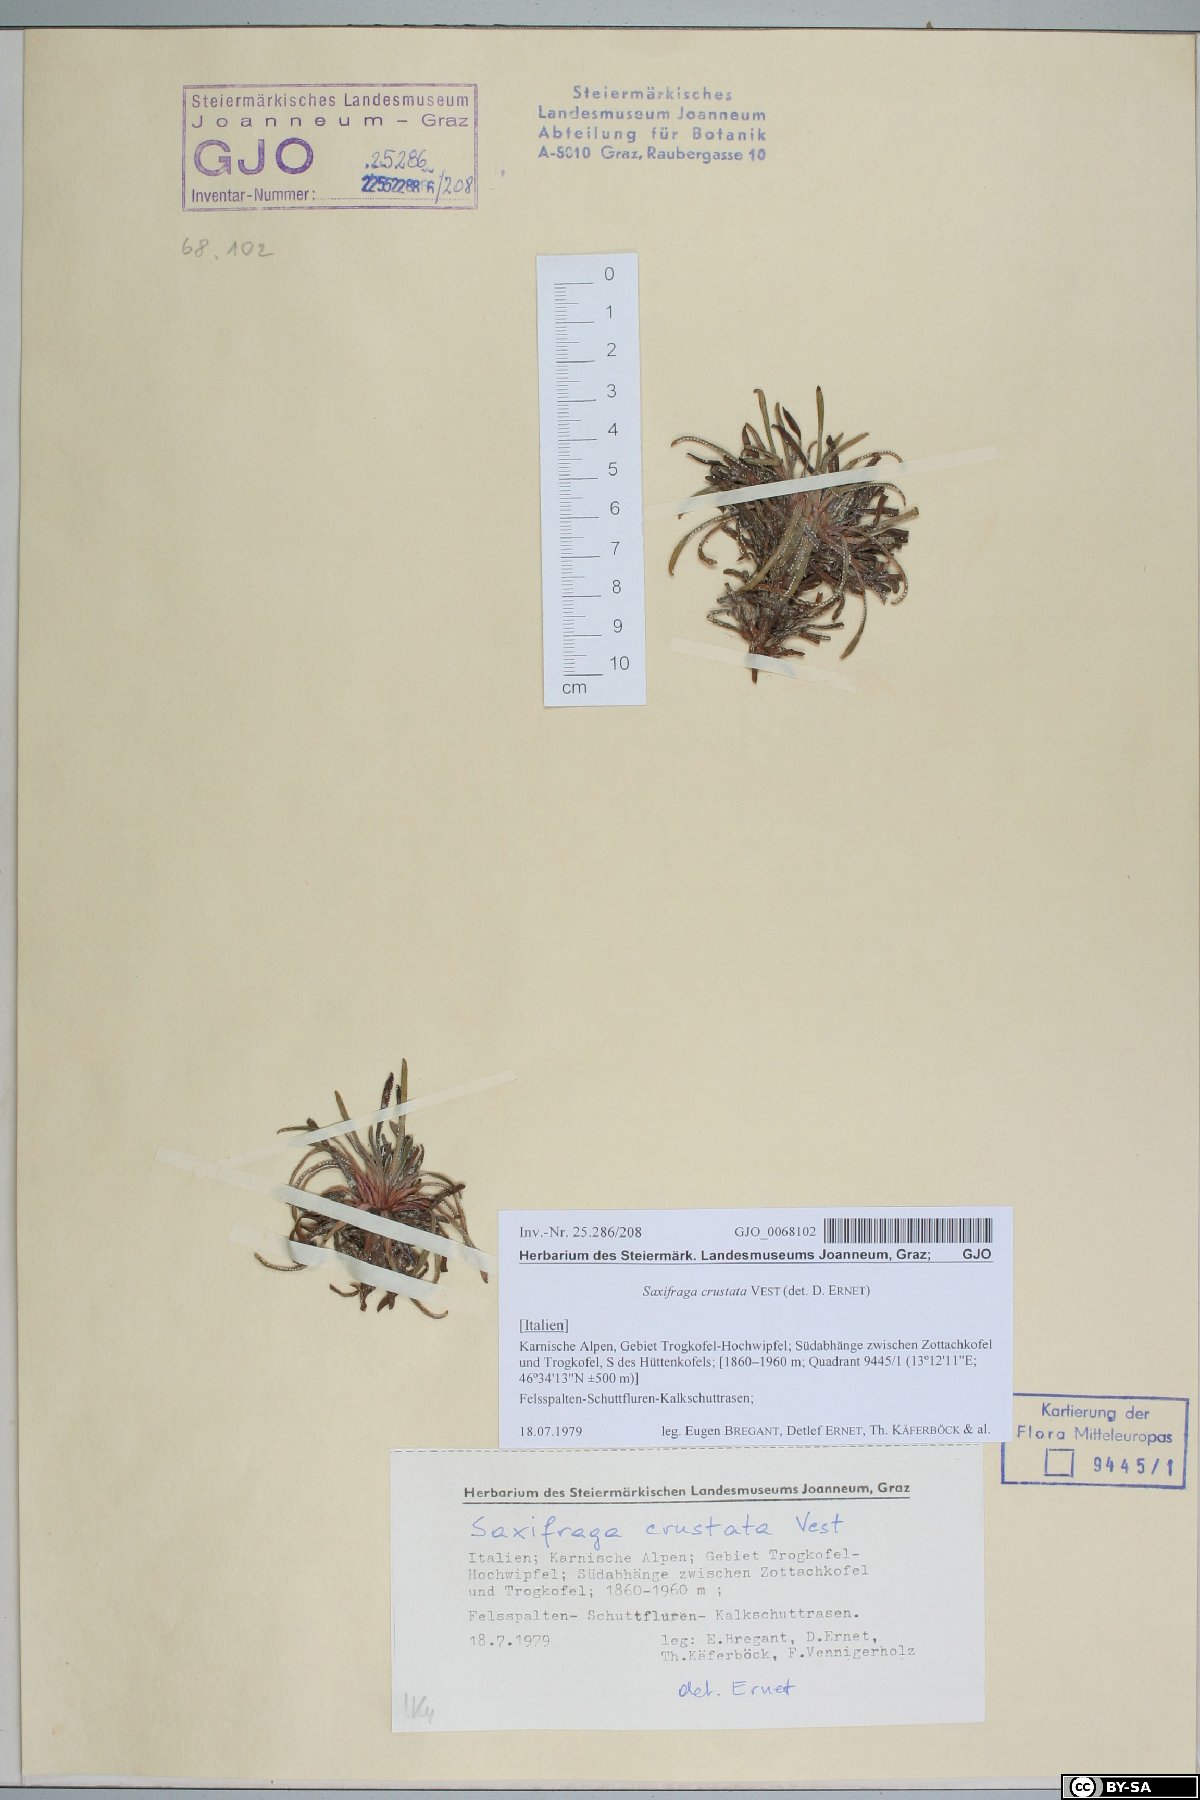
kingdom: Plantae
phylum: Tracheophyta
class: Magnoliopsida
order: Saxifragales
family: Saxifragaceae
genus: Saxifraga
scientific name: Saxifraga crustata
